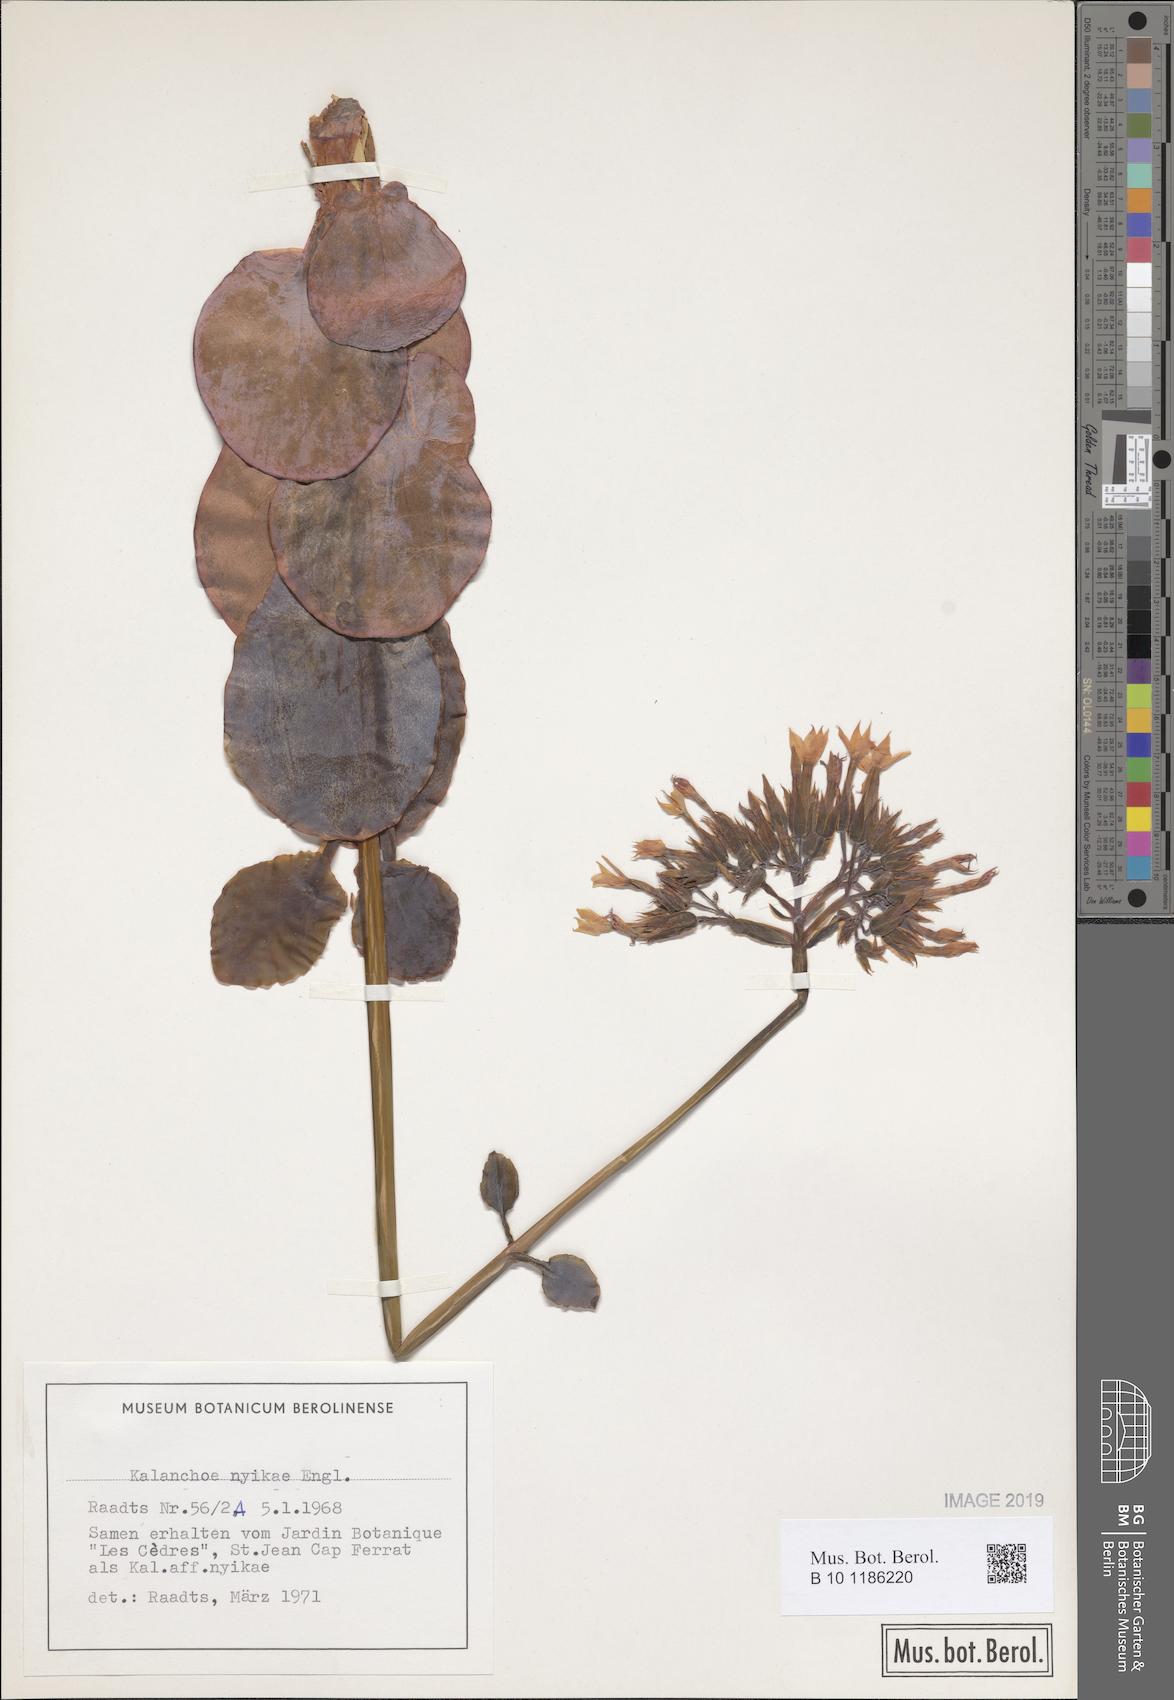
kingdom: Plantae
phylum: Tracheophyta
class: Magnoliopsida
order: Saxifragales
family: Crassulaceae
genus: Kalanchoe
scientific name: Kalanchoe nyikae
